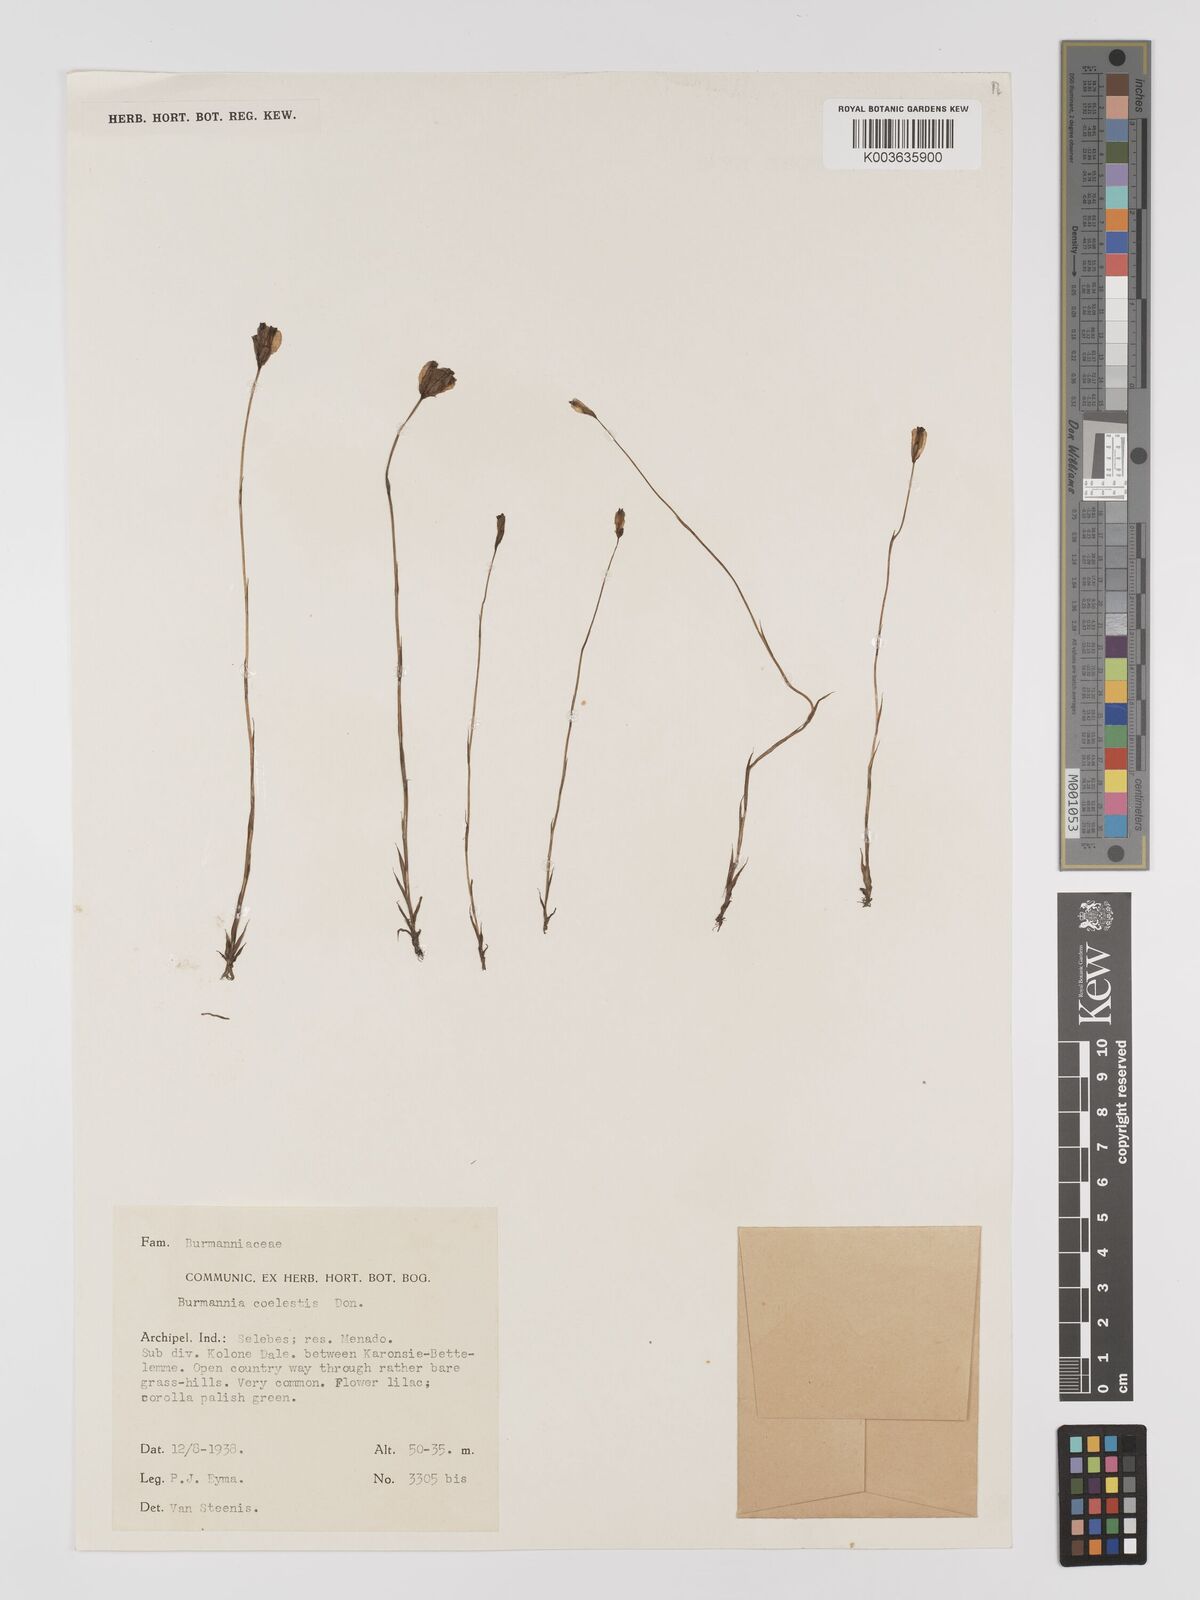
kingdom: Plantae
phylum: Tracheophyta
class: Liliopsida
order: Dioscoreales
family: Burmanniaceae
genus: Burmannia
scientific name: Burmannia coelestis
